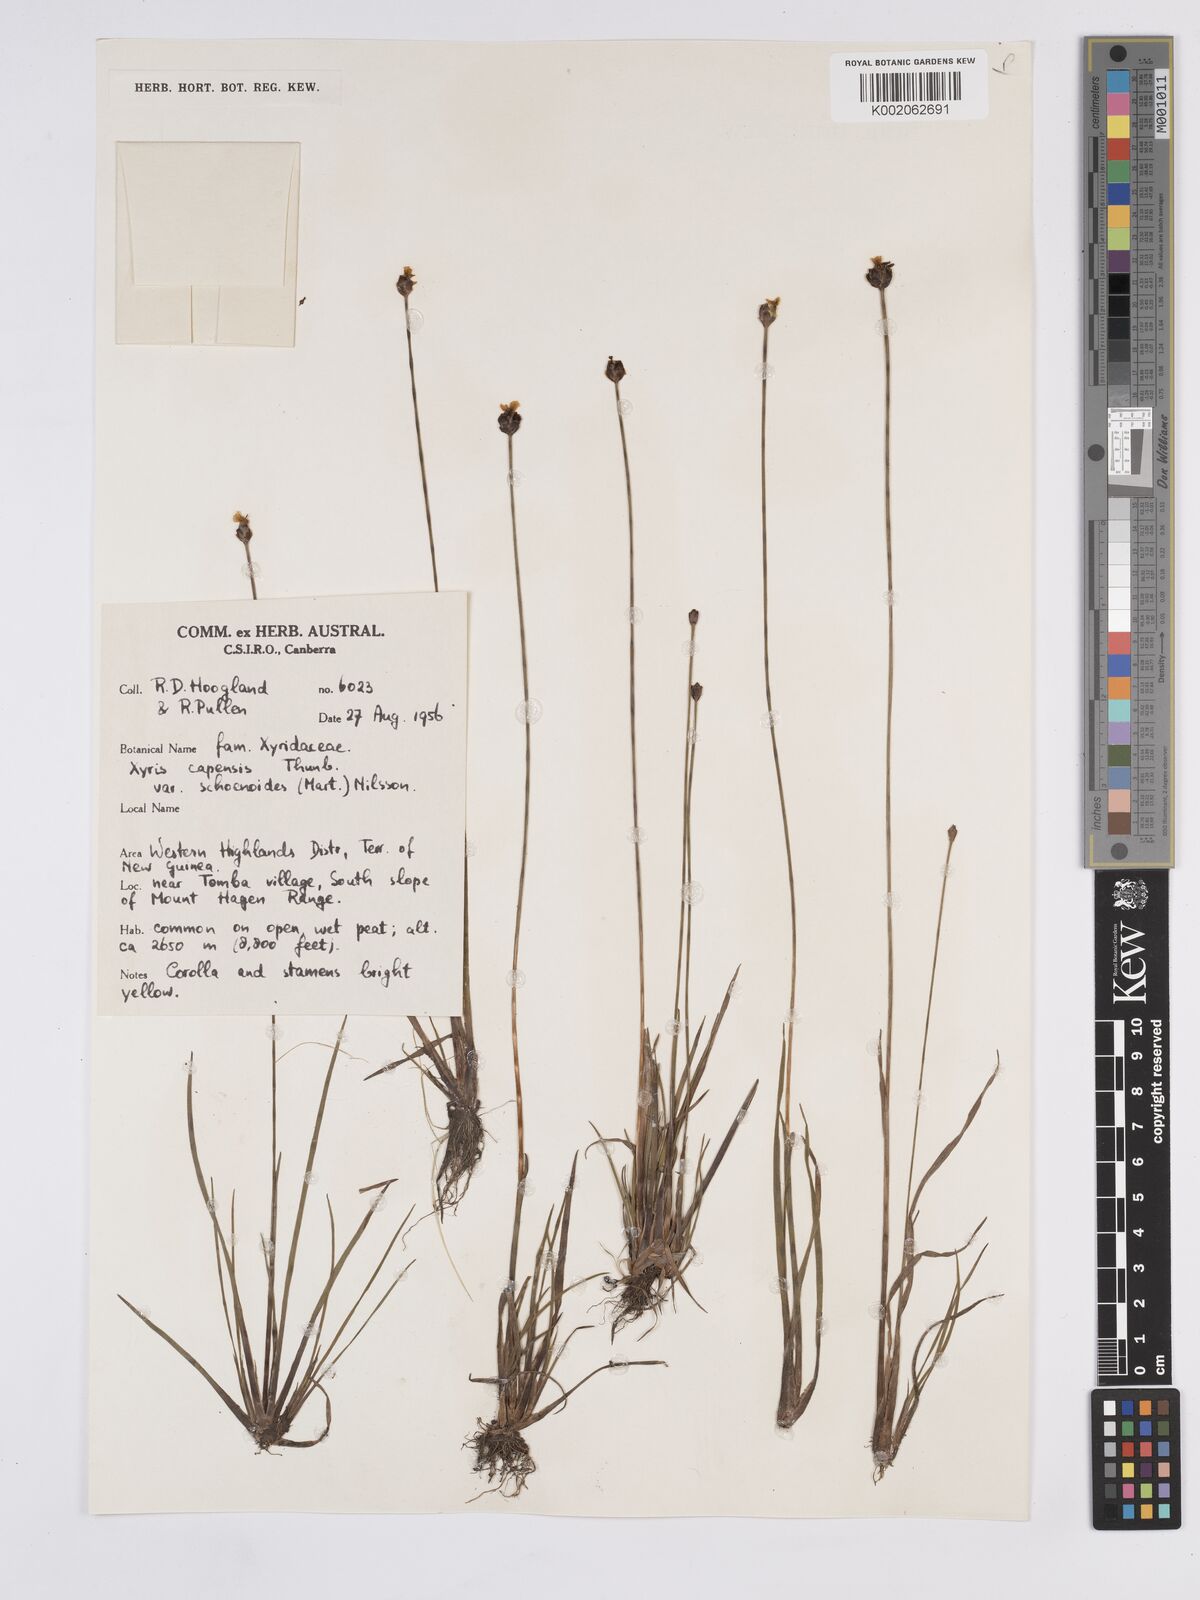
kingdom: Plantae
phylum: Tracheophyta
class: Liliopsida
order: Poales
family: Xyridaceae
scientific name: Xyridaceae
